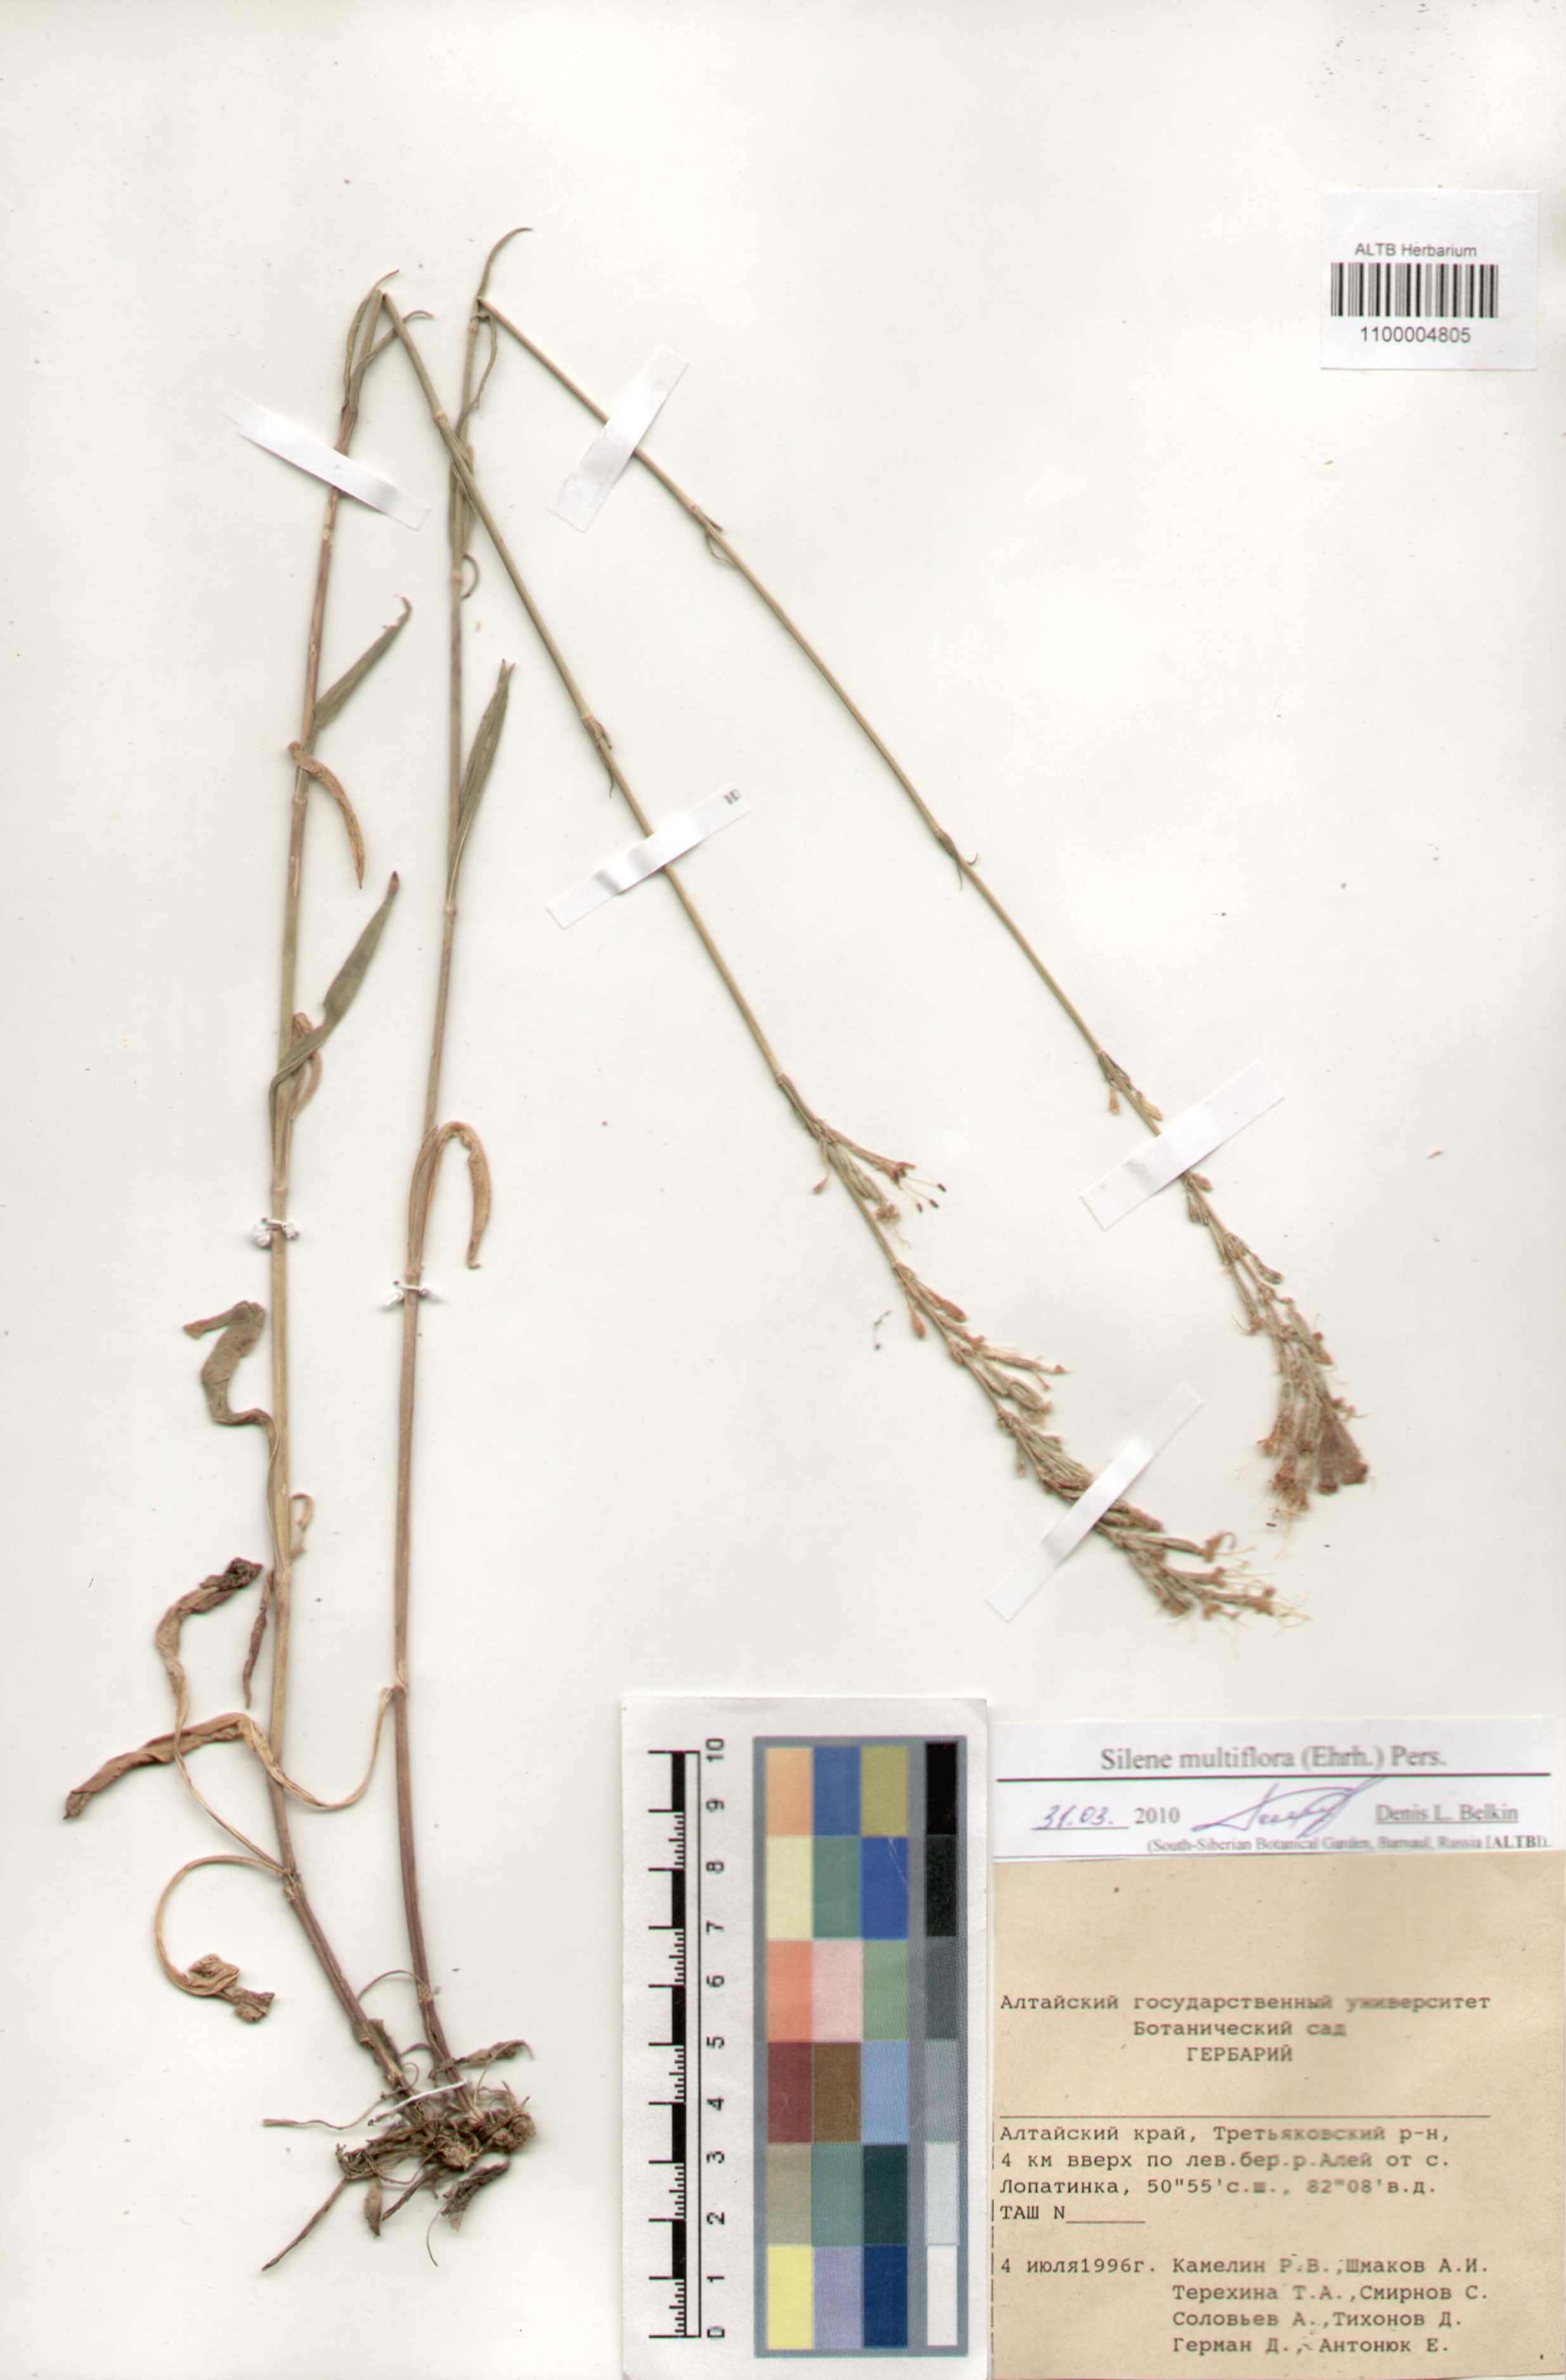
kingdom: Plantae
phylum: Tracheophyta
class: Magnoliopsida
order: Caryophyllales
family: Caryophyllaceae
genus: Silene
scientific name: Silene multiflora
